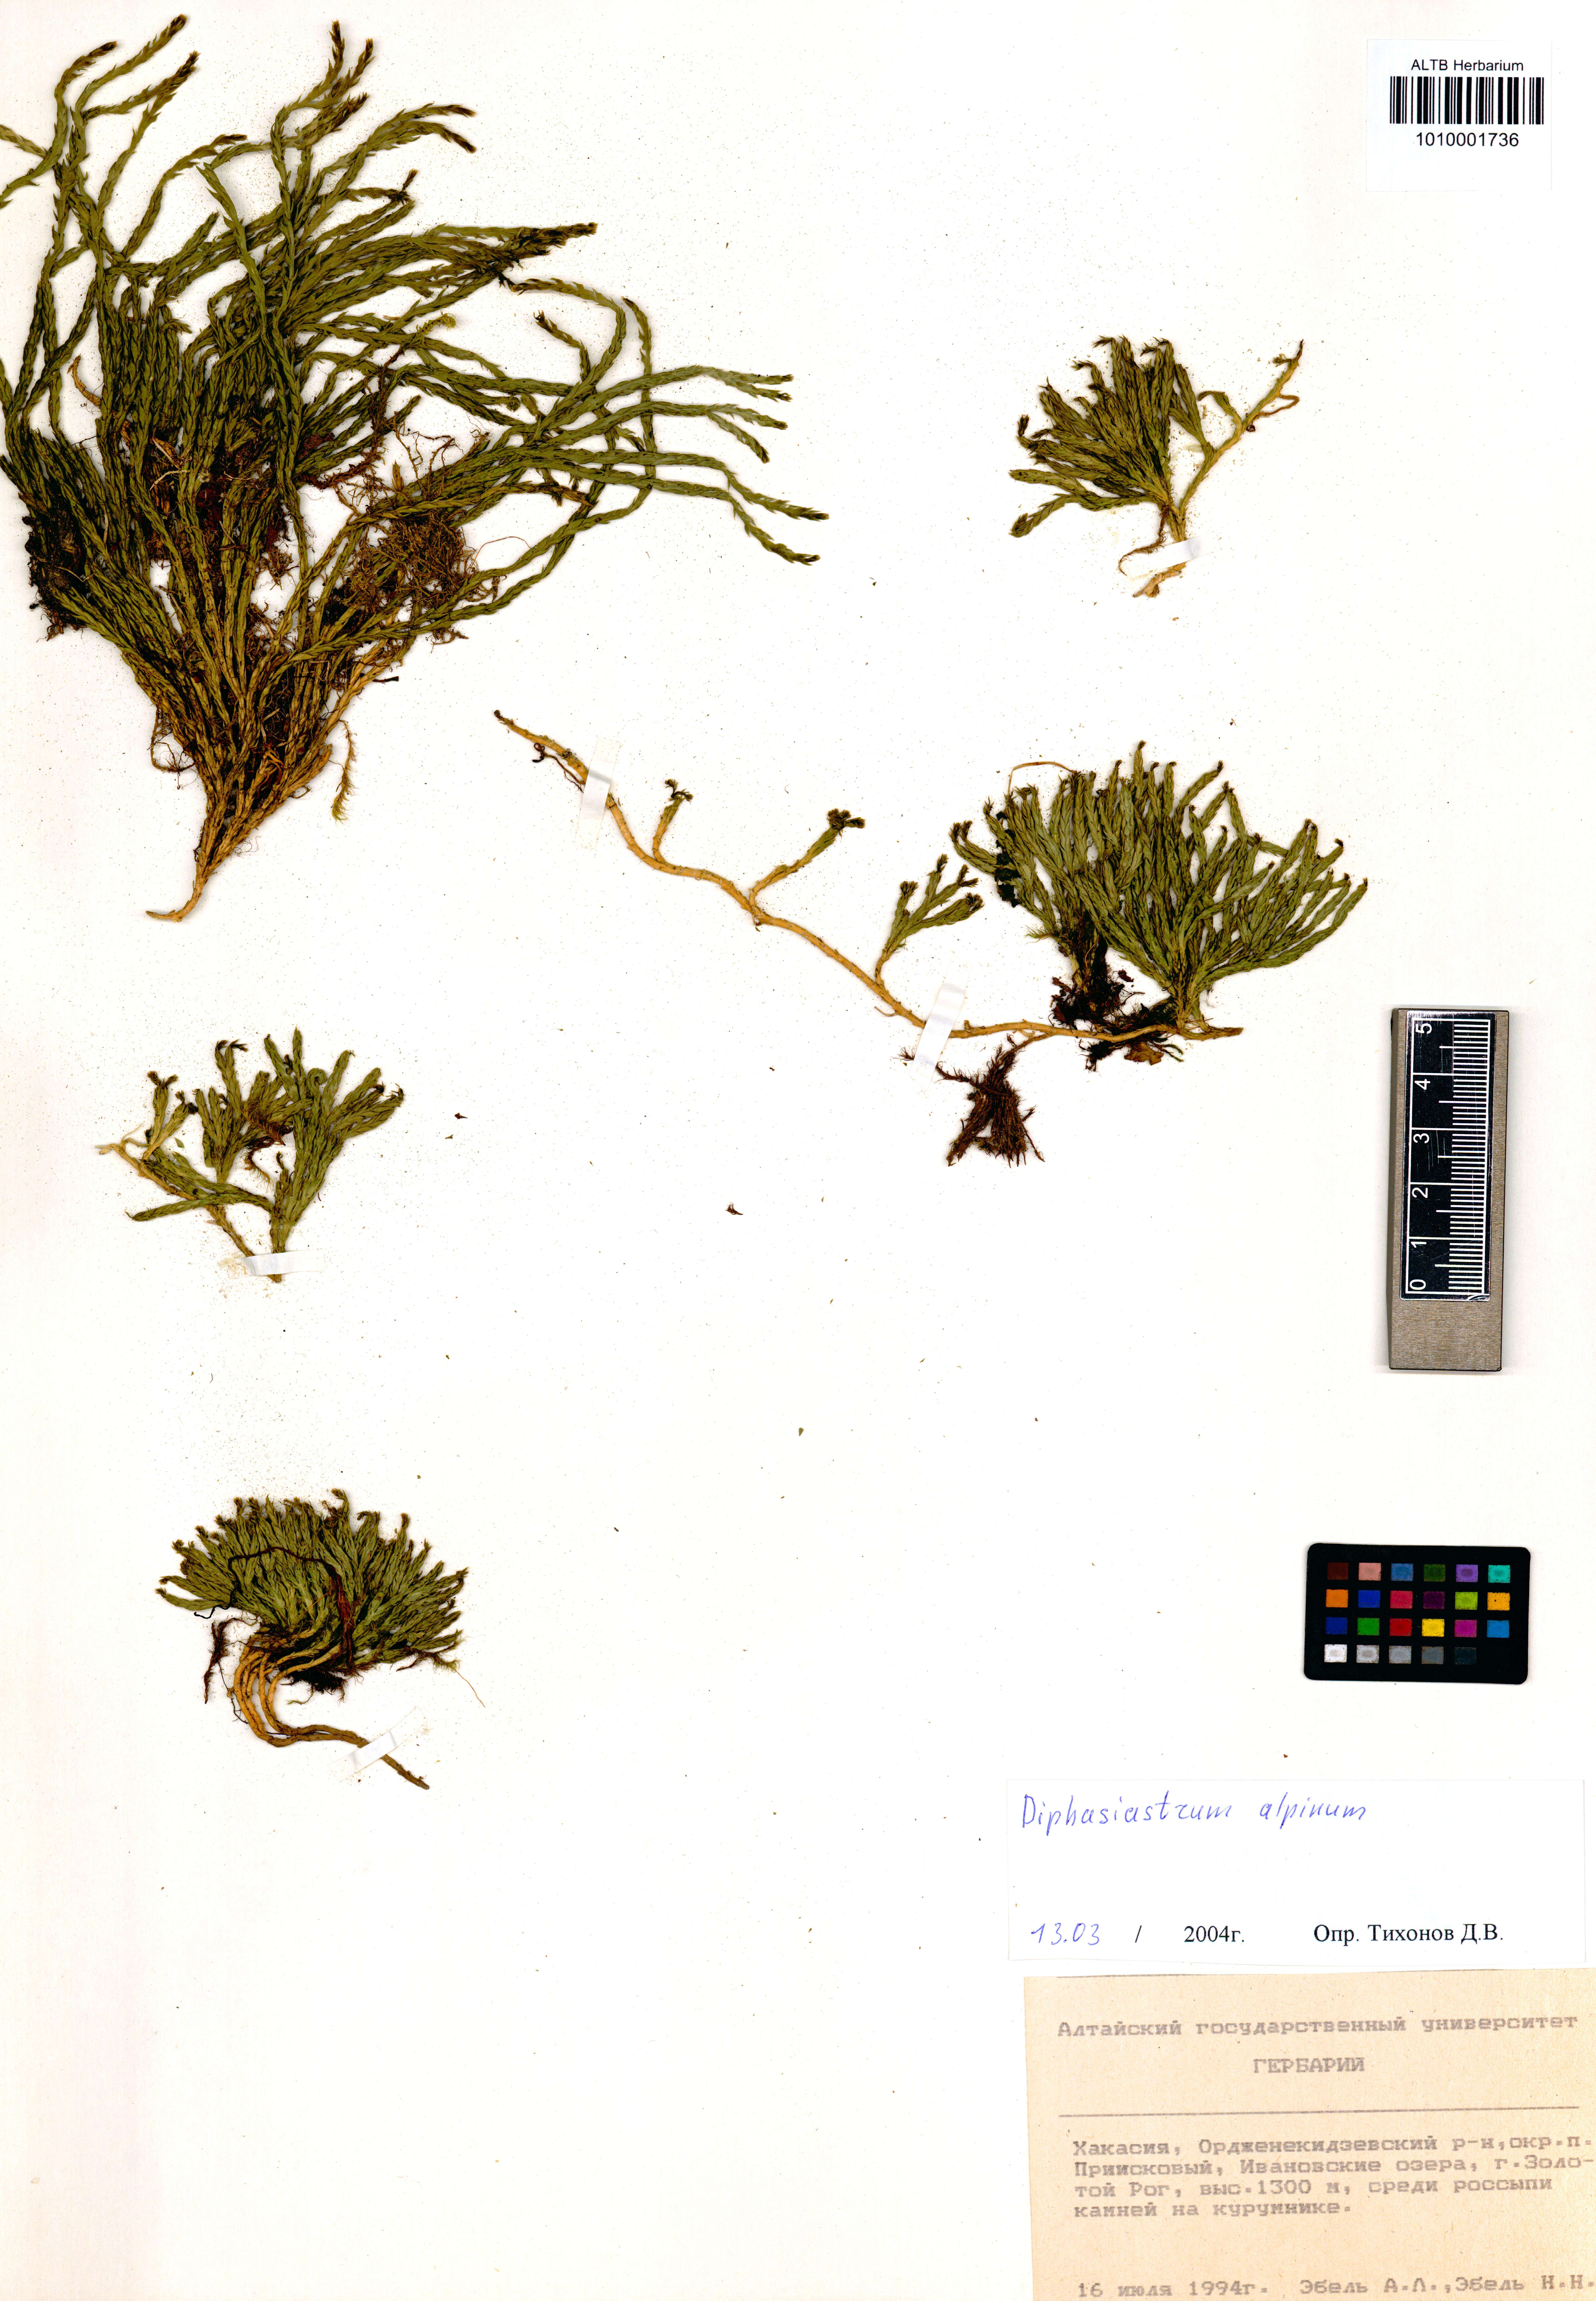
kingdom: Plantae
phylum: Tracheophyta
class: Lycopodiopsida
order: Lycopodiales
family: Lycopodiaceae
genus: Diphasiastrum
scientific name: Diphasiastrum alpinum
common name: Alpine clubmoss
